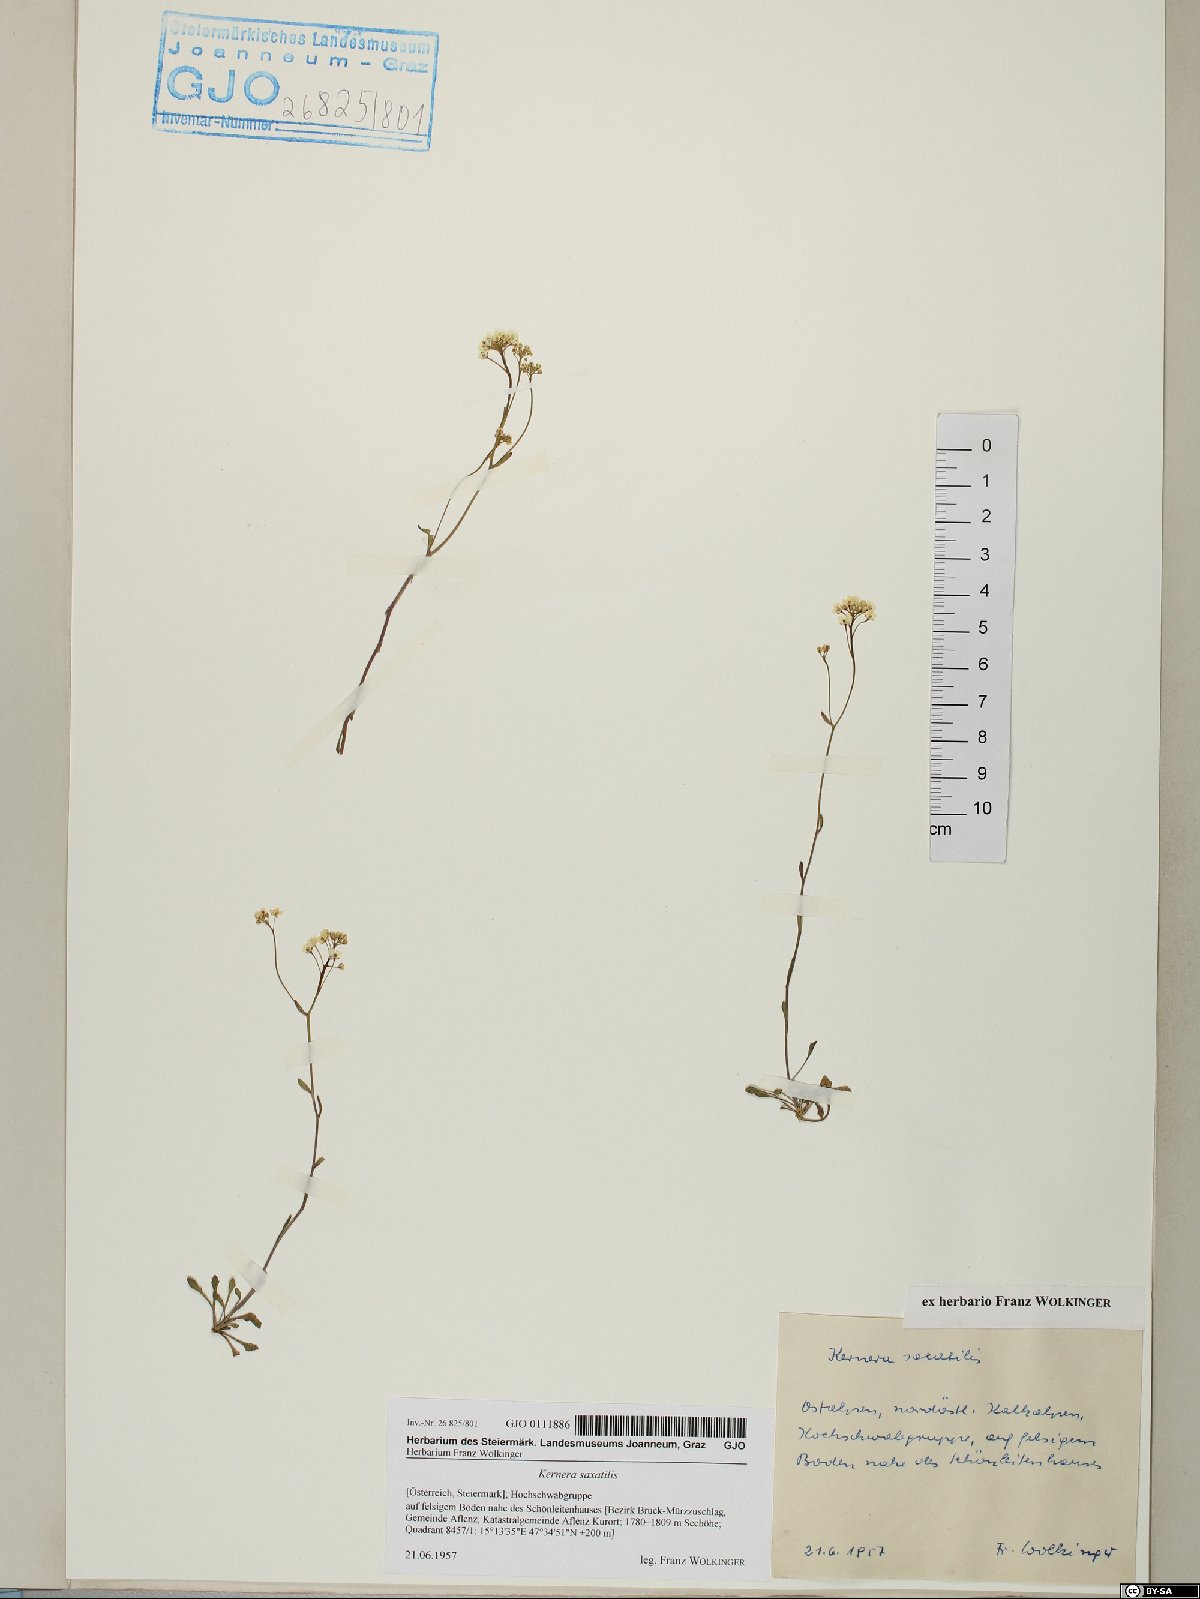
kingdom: Plantae
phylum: Tracheophyta
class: Magnoliopsida
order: Brassicales
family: Brassicaceae
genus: Kernera
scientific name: Kernera saxatilis
